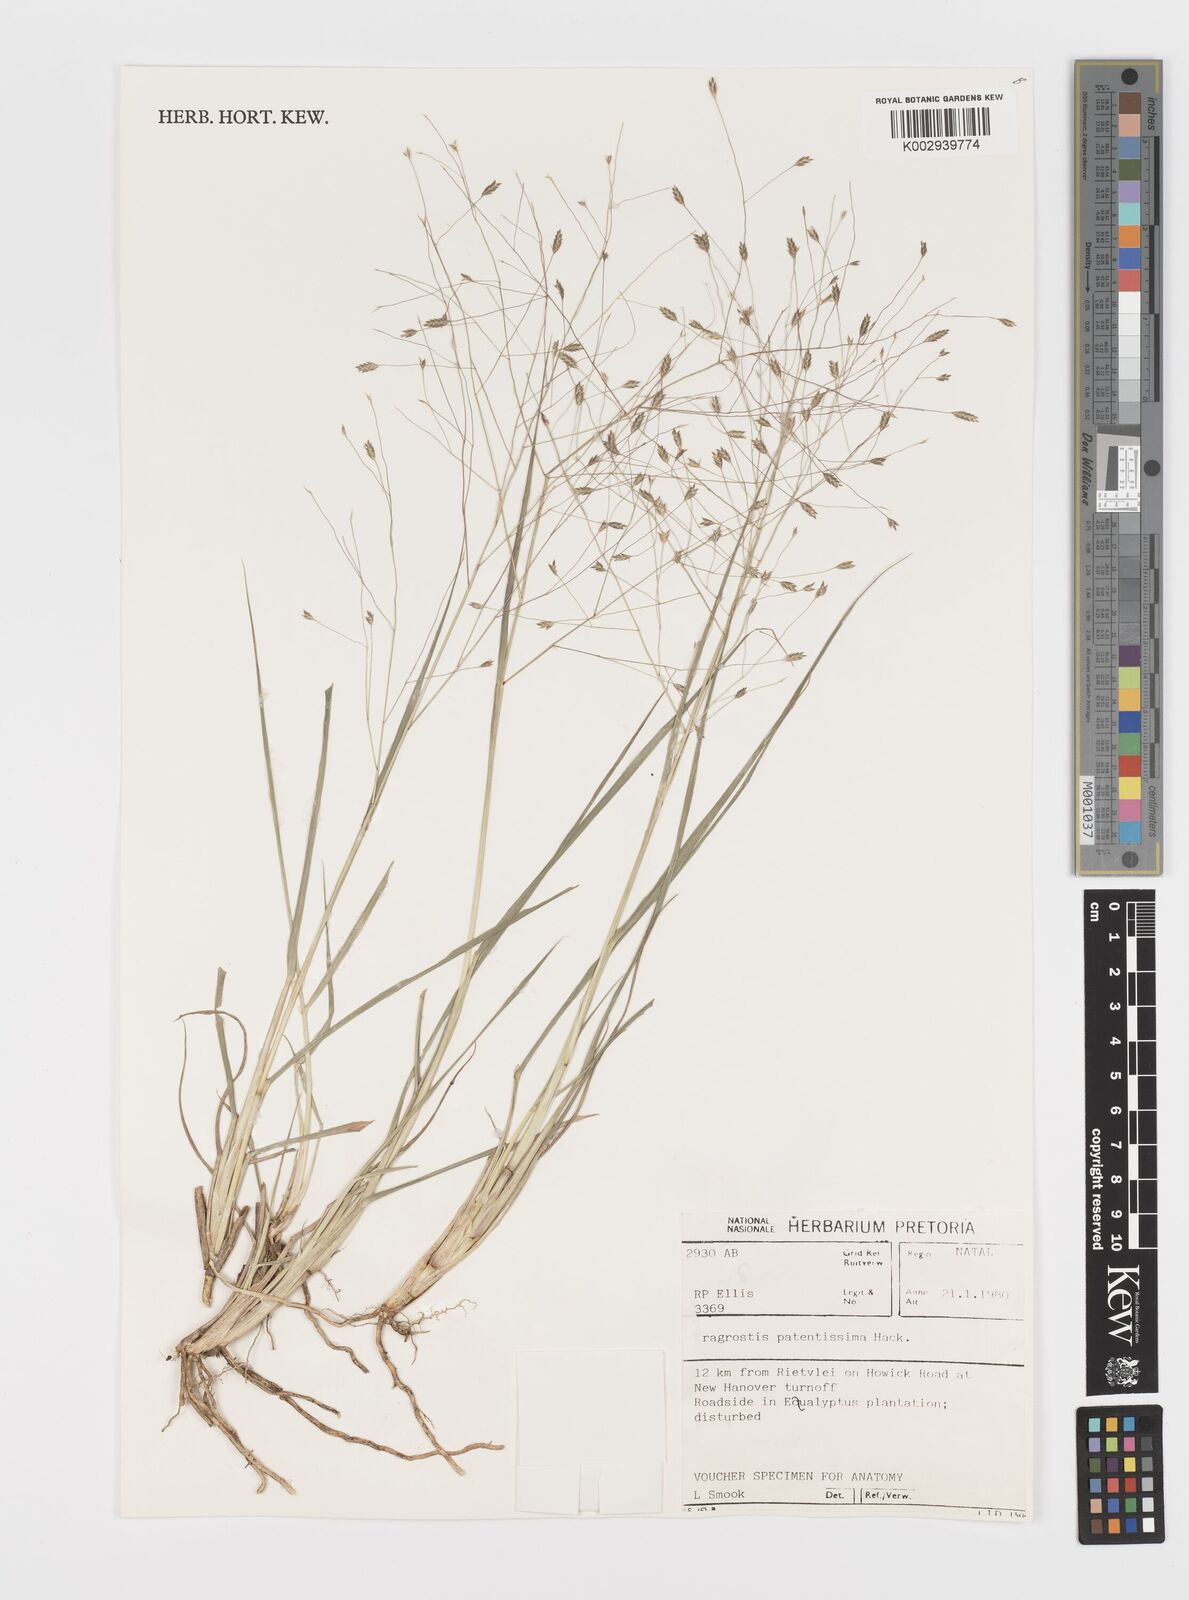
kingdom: Plantae
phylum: Tracheophyta
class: Liliopsida
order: Poales
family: Poaceae
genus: Eragrostis
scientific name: Eragrostis patentissima
